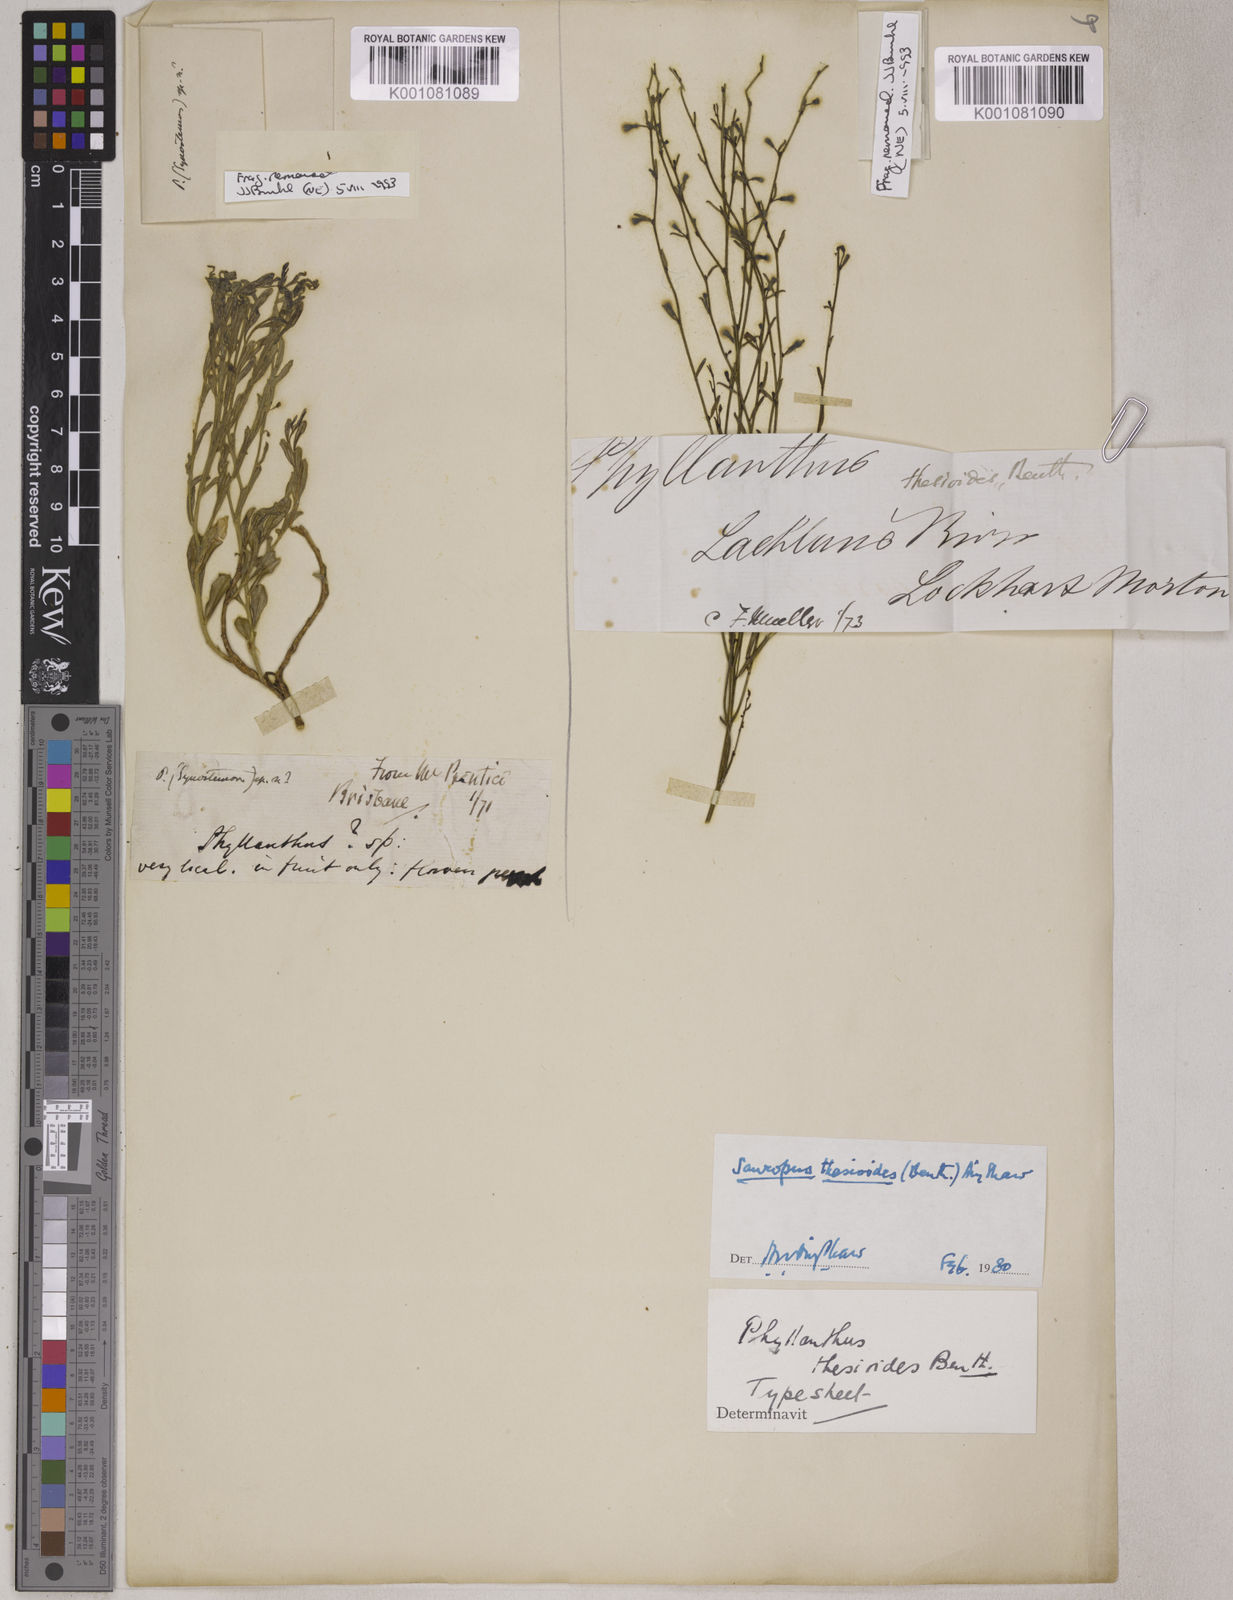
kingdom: Plantae
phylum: Tracheophyta
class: Magnoliopsida
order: Malpighiales
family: Phyllanthaceae
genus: Breynia
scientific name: Breynia Sauropus thesioides
